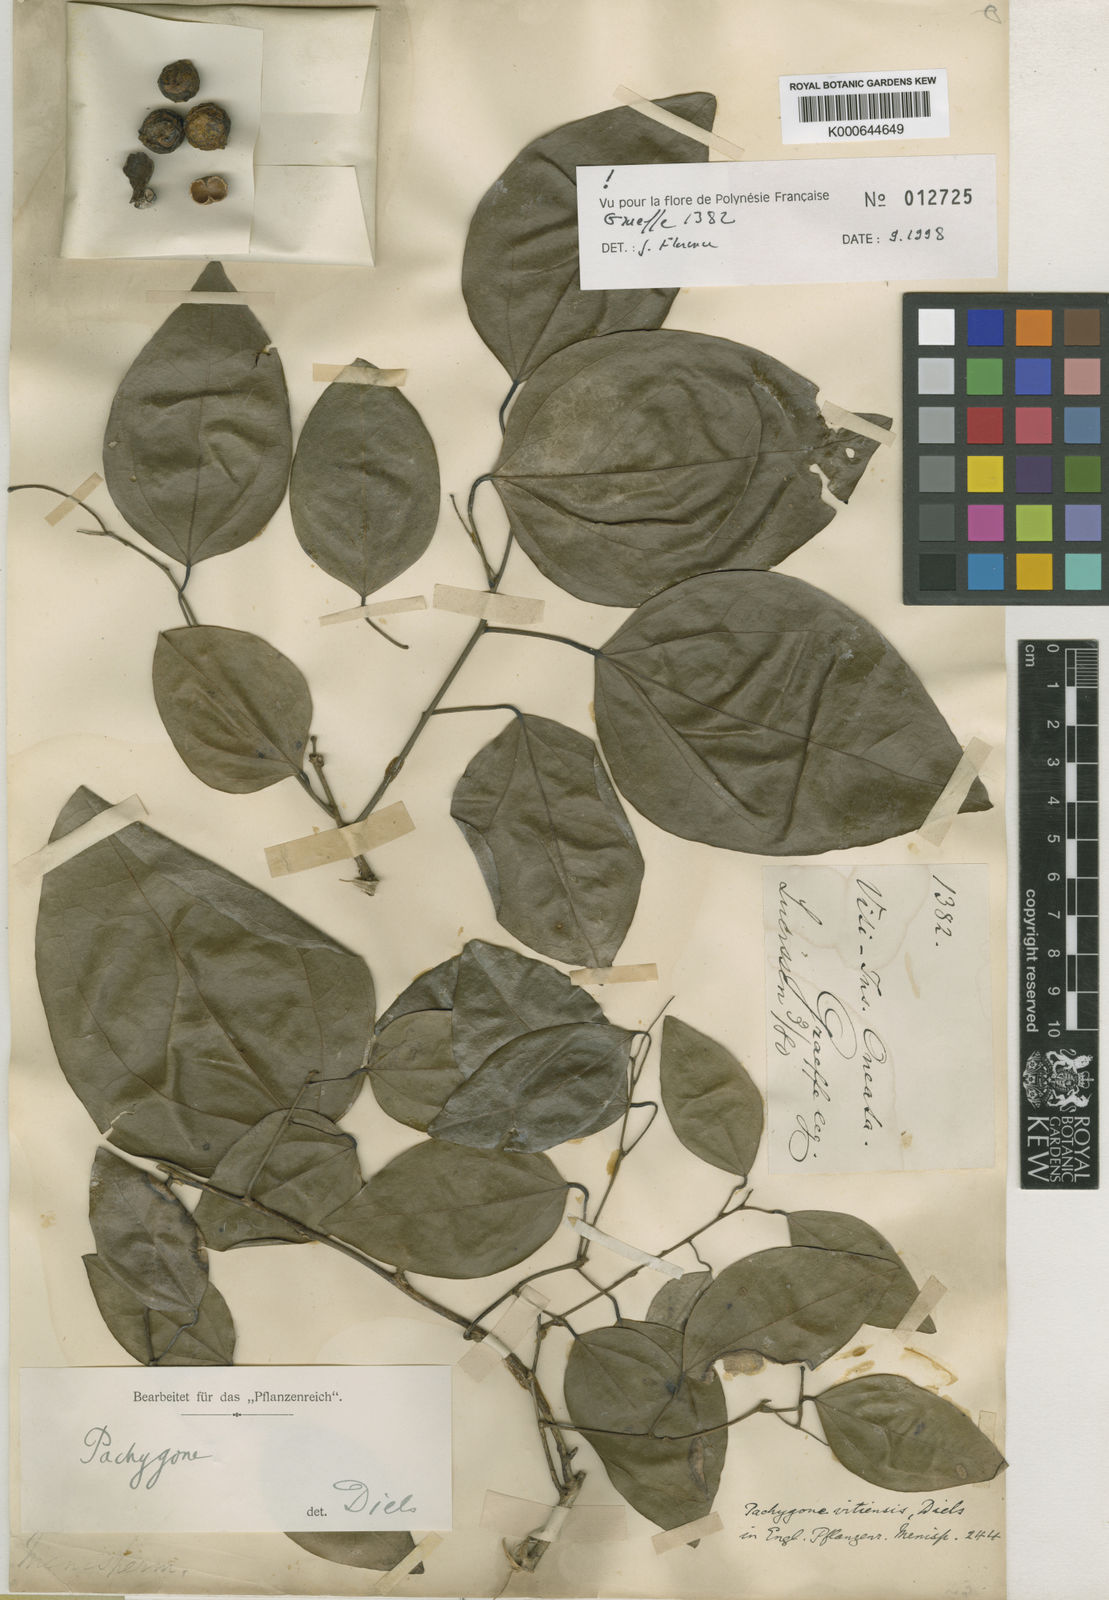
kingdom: Plantae
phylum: Tracheophyta
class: Magnoliopsida
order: Ranunculales
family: Menispermaceae
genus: Pachygone
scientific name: Pachygone vitiensis
